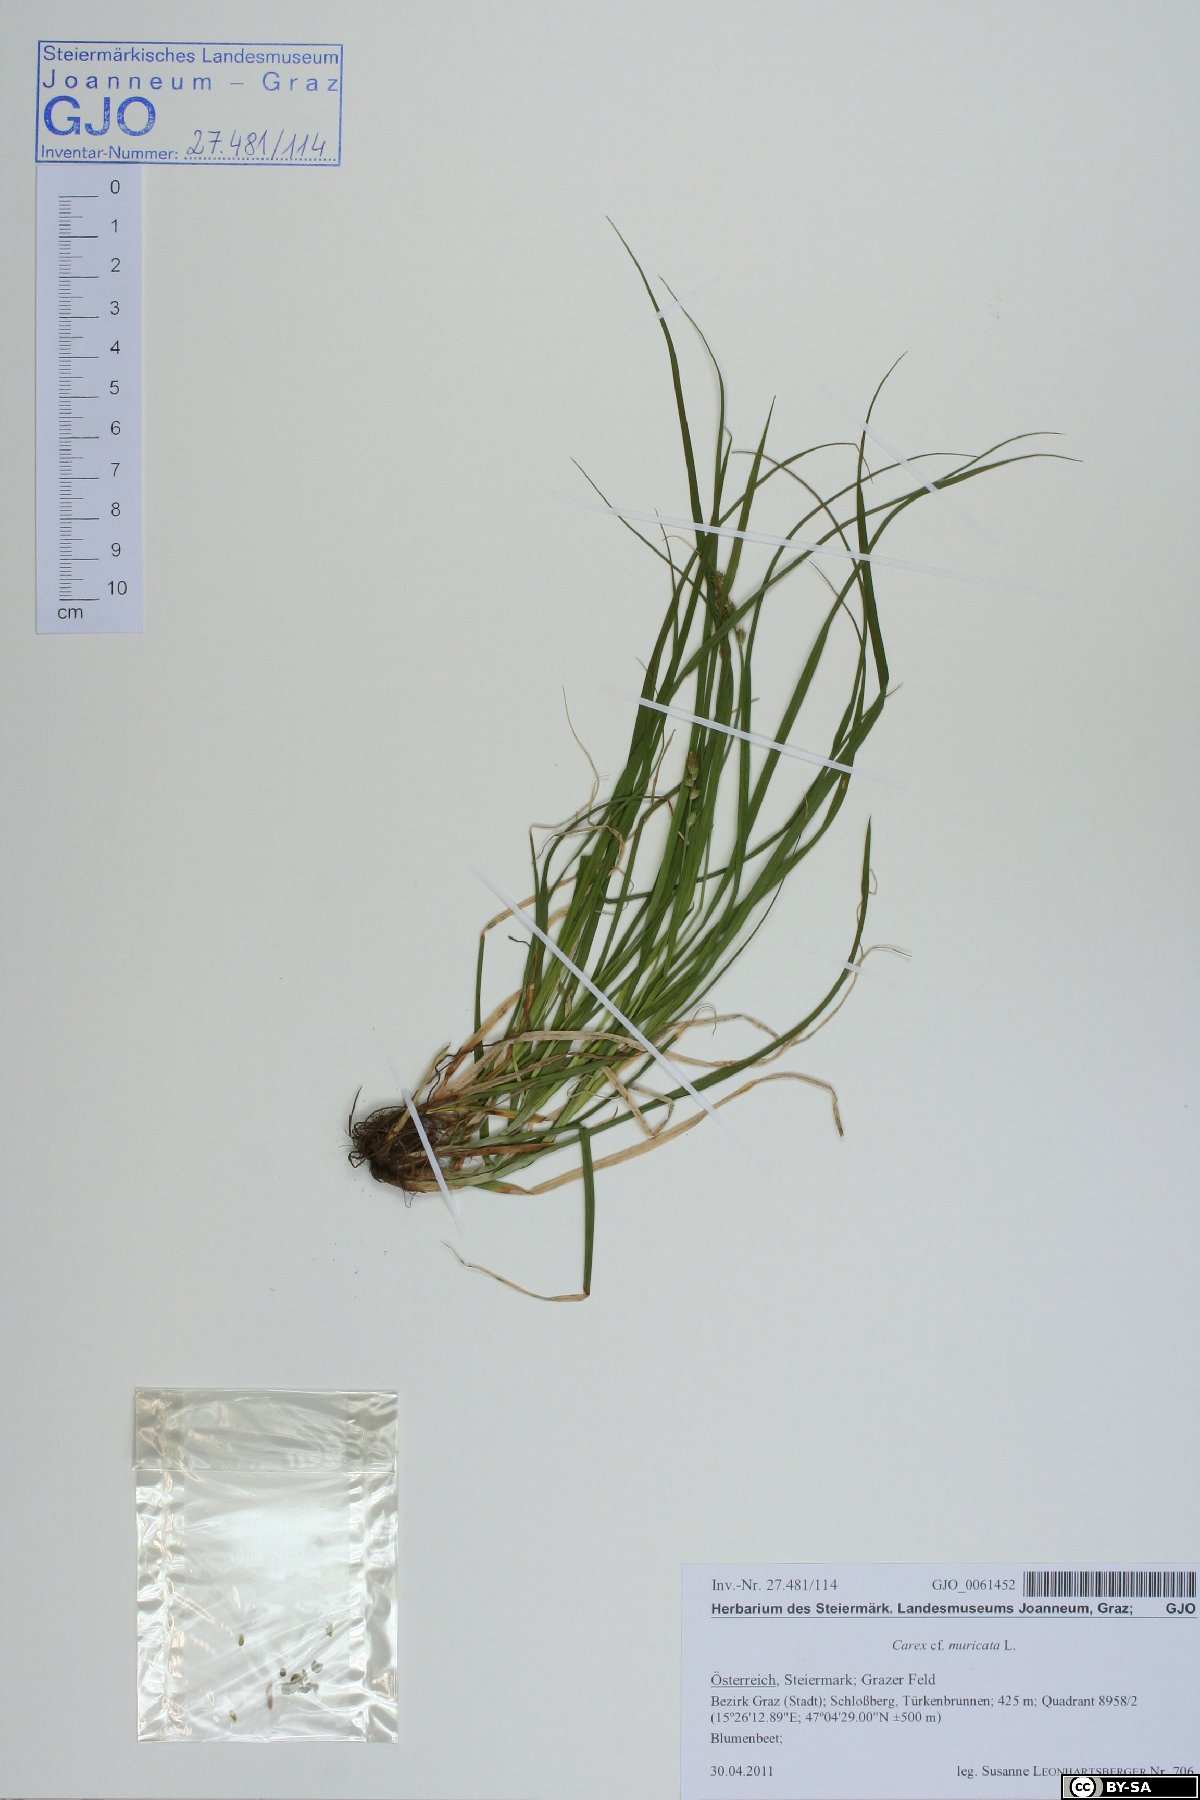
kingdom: Plantae
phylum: Tracheophyta
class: Liliopsida
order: Poales
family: Cyperaceae
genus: Carex
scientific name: Carex muricata
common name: Rough sedge
